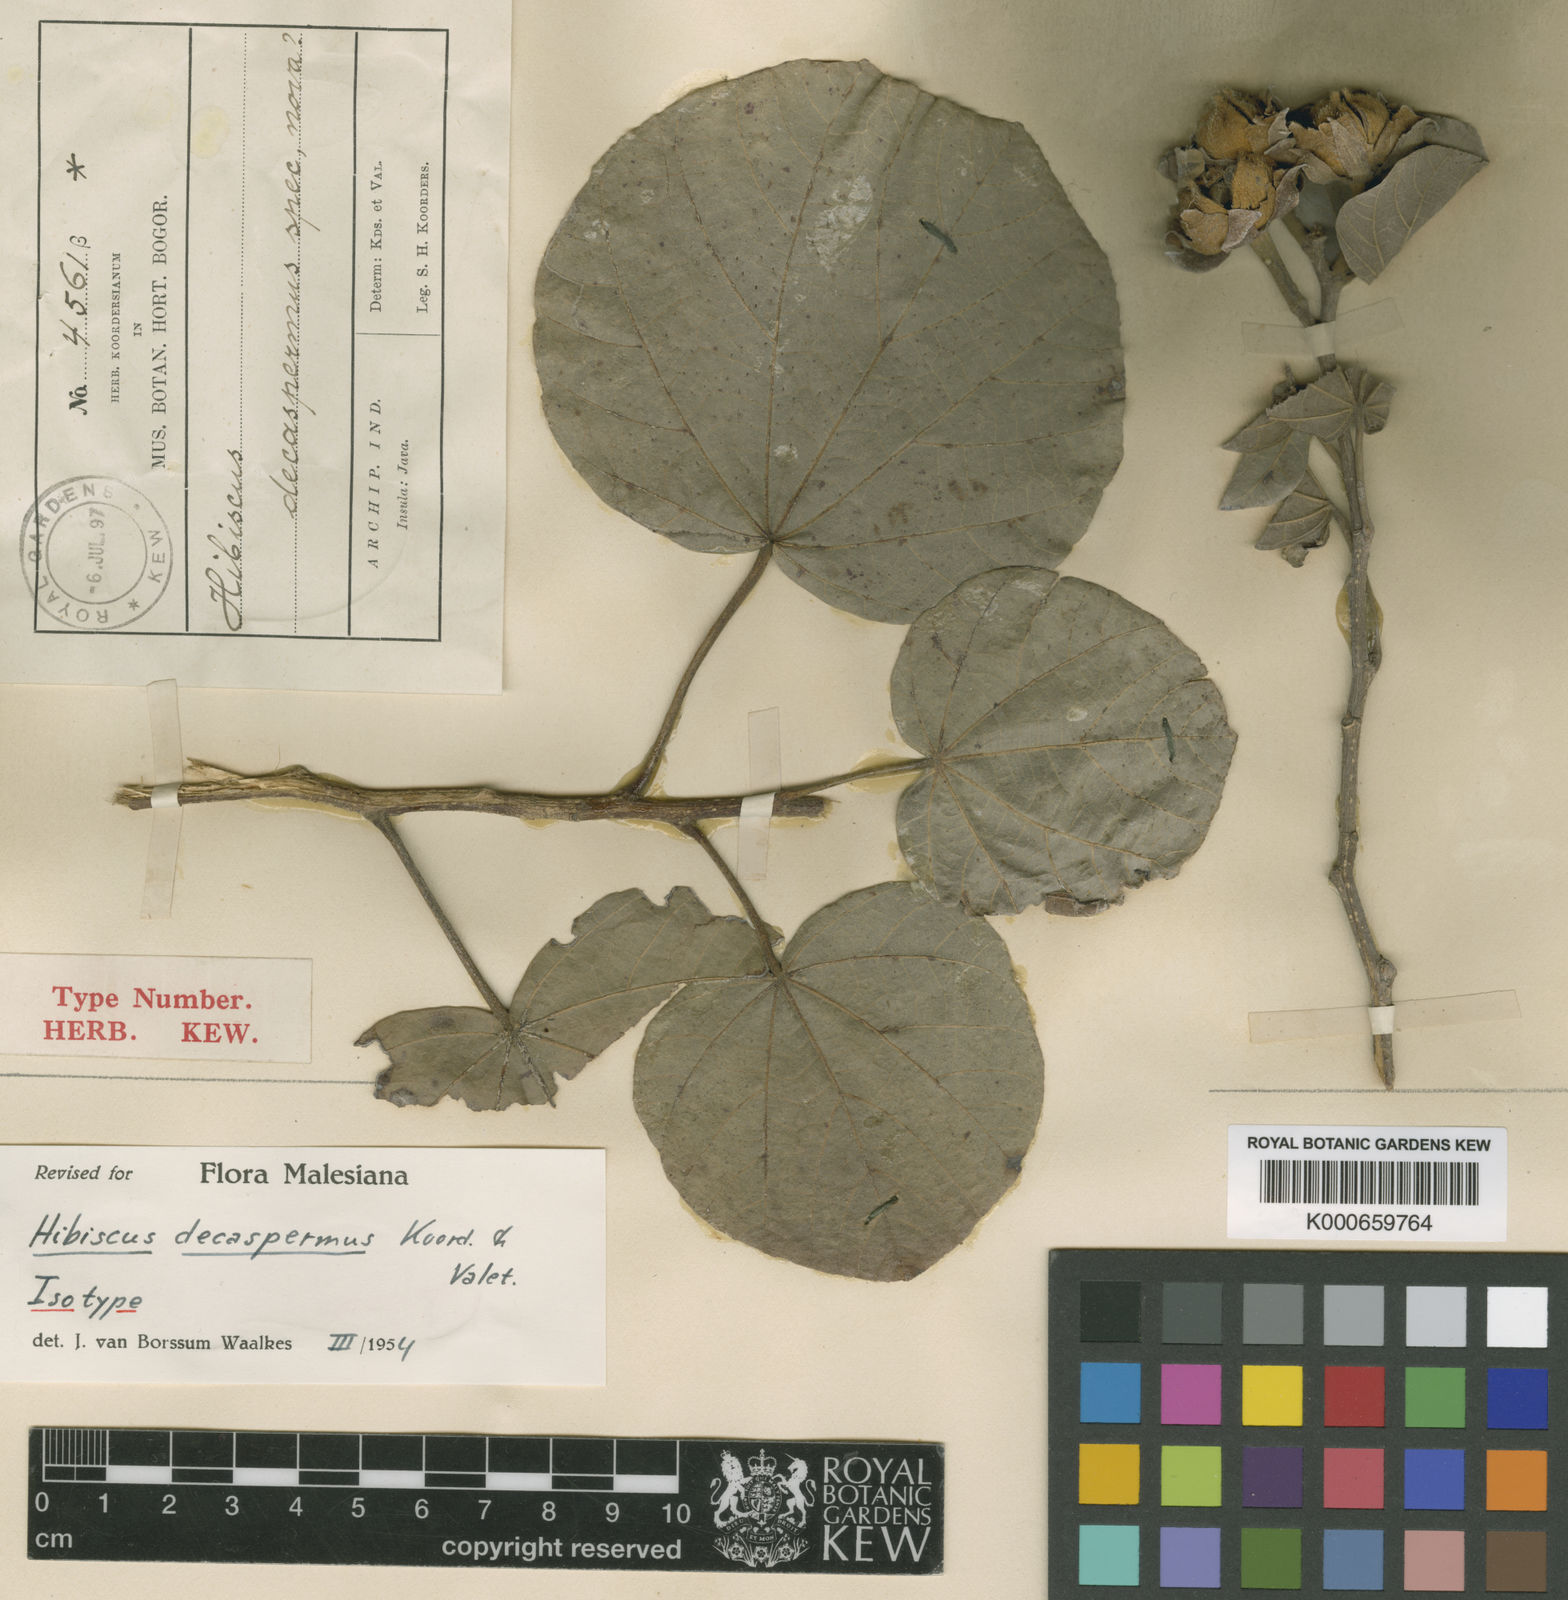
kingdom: Plantae
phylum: Tracheophyta
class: Magnoliopsida
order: Malvales
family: Malvaceae
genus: Hibiscus
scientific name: Hibiscus decaspermus
